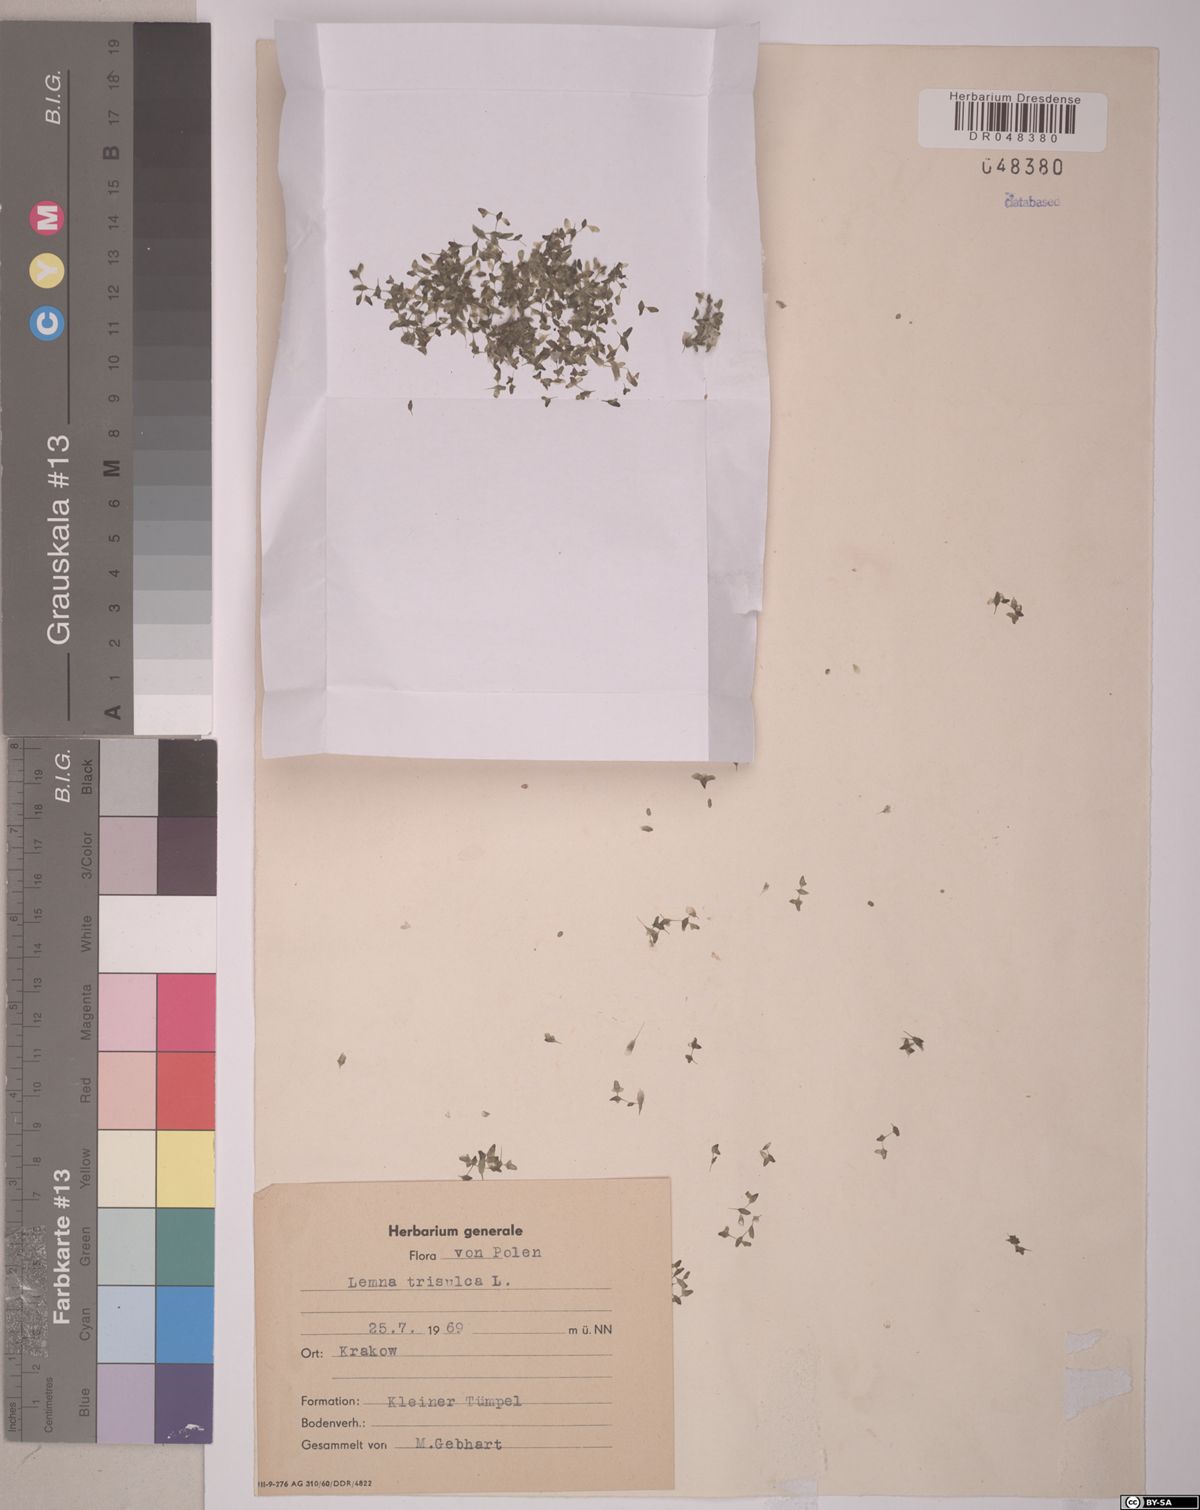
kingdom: Plantae
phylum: Tracheophyta
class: Liliopsida
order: Alismatales
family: Araceae
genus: Lemna
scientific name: Lemna trisulca
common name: Ivy-leaved duckweed
